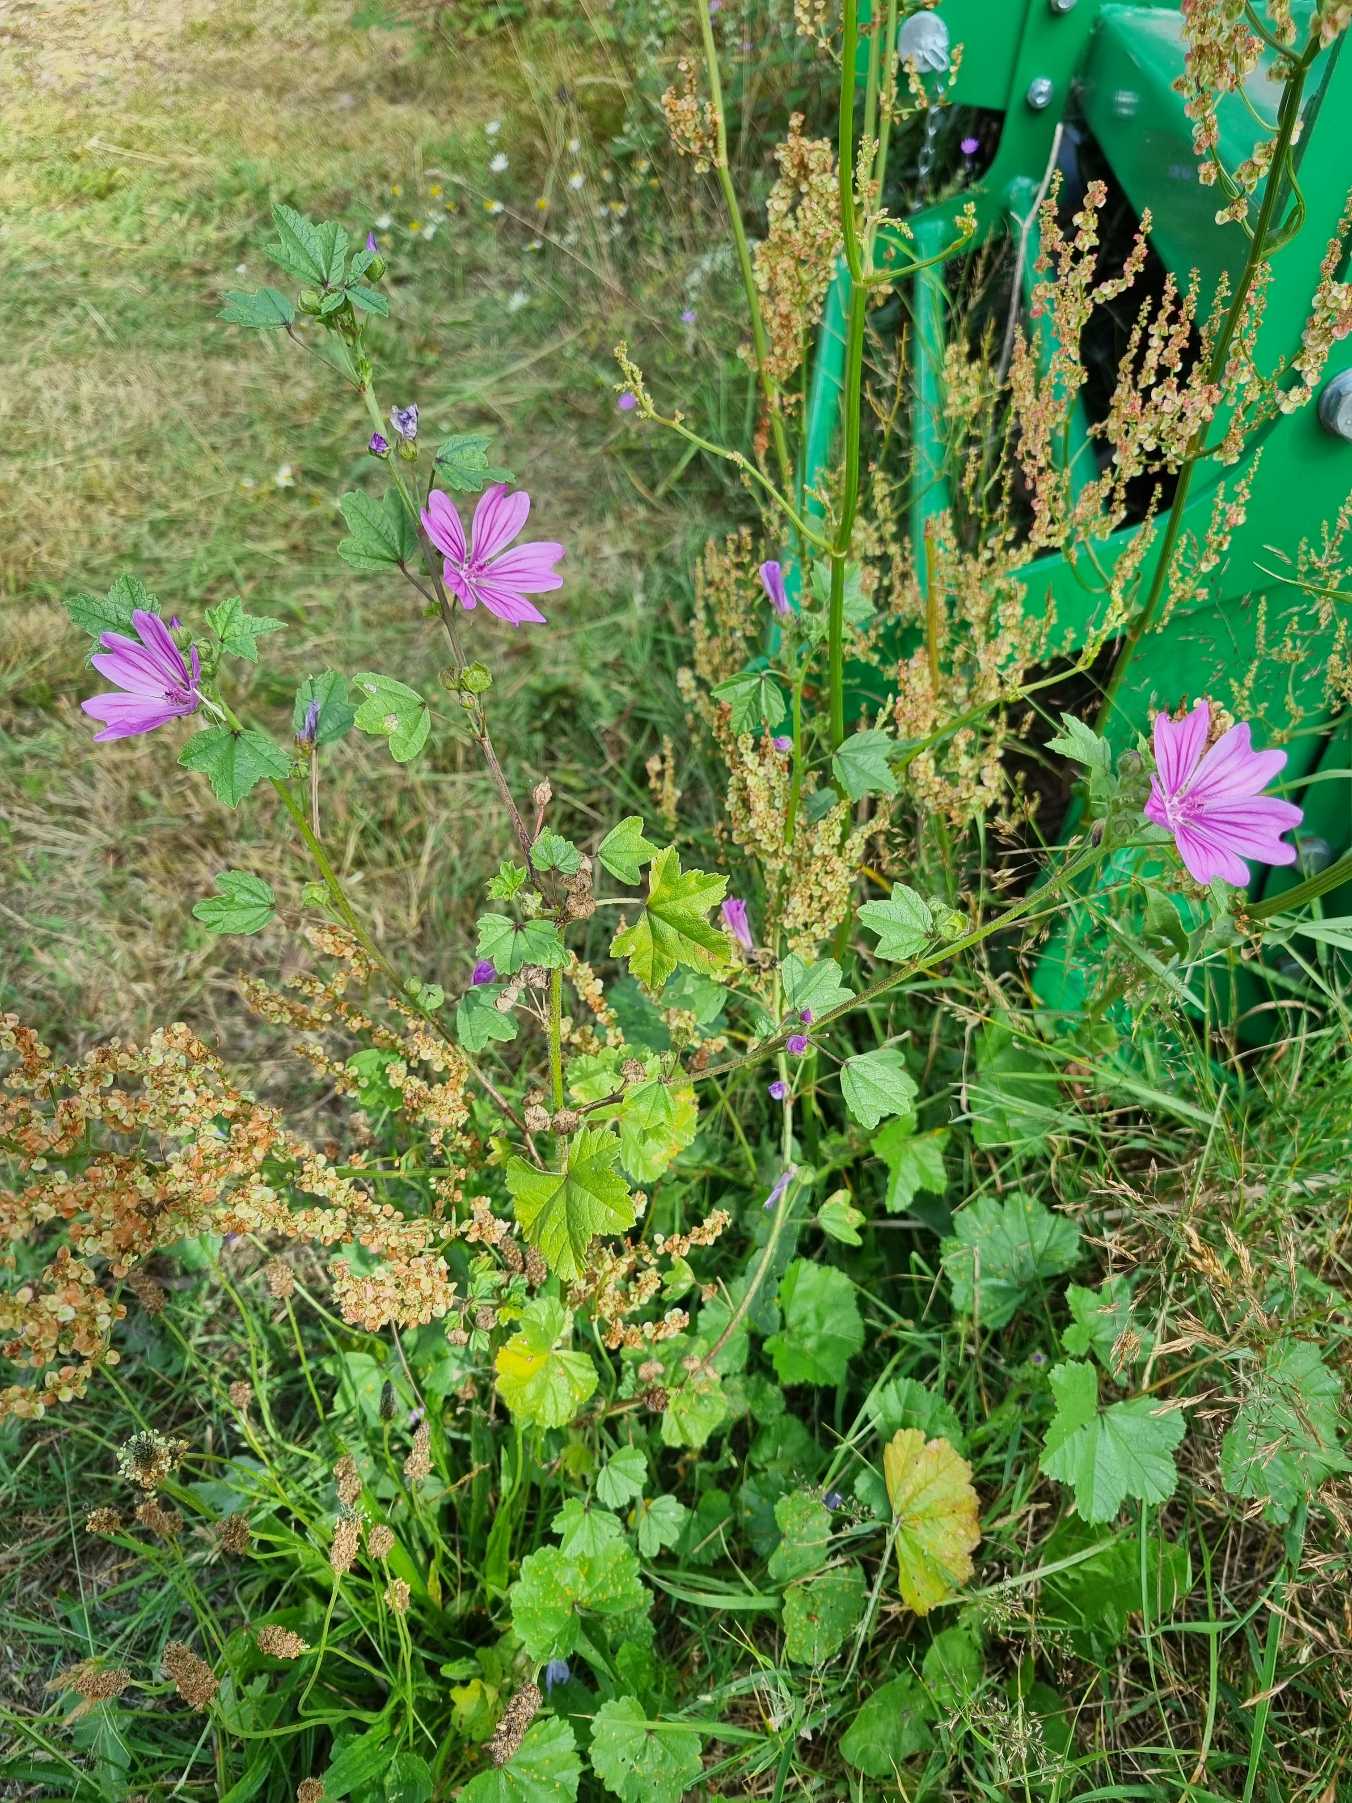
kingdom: Plantae
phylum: Tracheophyta
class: Magnoliopsida
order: Malvales
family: Malvaceae
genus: Malva
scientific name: Malva sylvestris
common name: Almindelig katost
